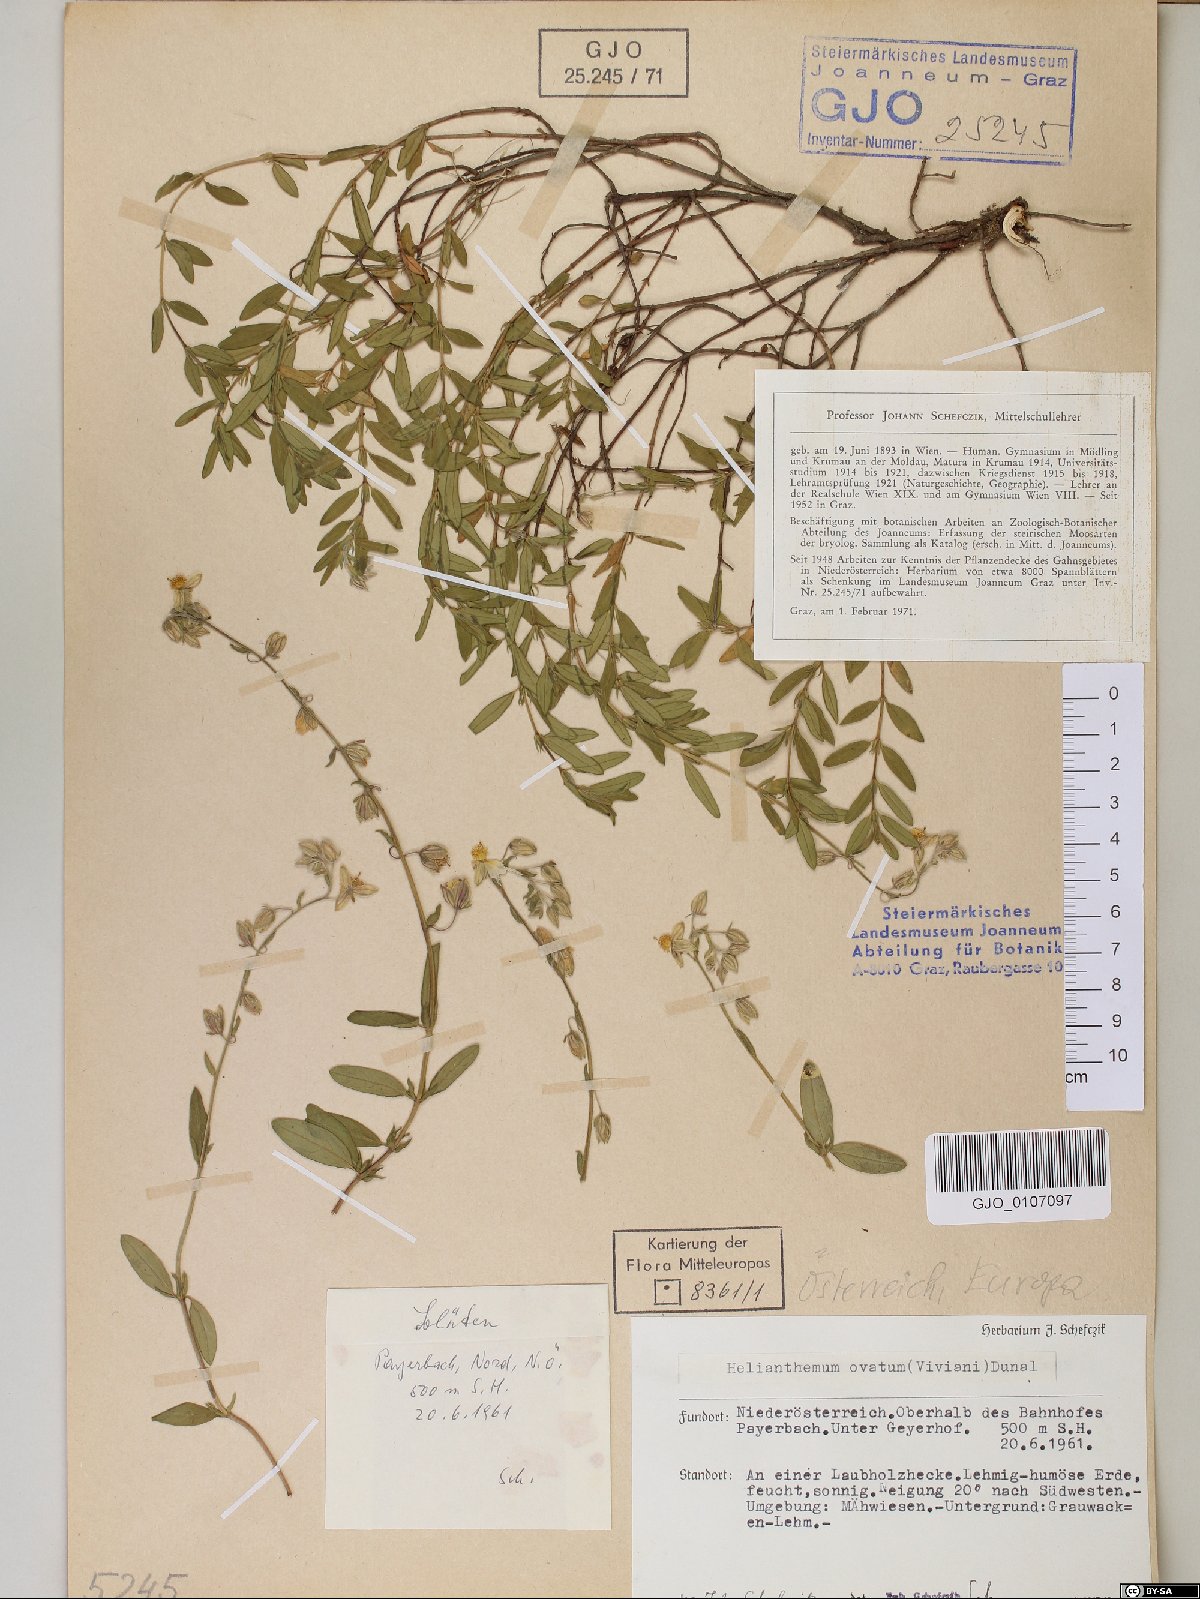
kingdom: Plantae
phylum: Tracheophyta
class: Magnoliopsida
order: Malvales
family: Cistaceae
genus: Helianthemum
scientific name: Helianthemum nummularium
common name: Common rock-rose
